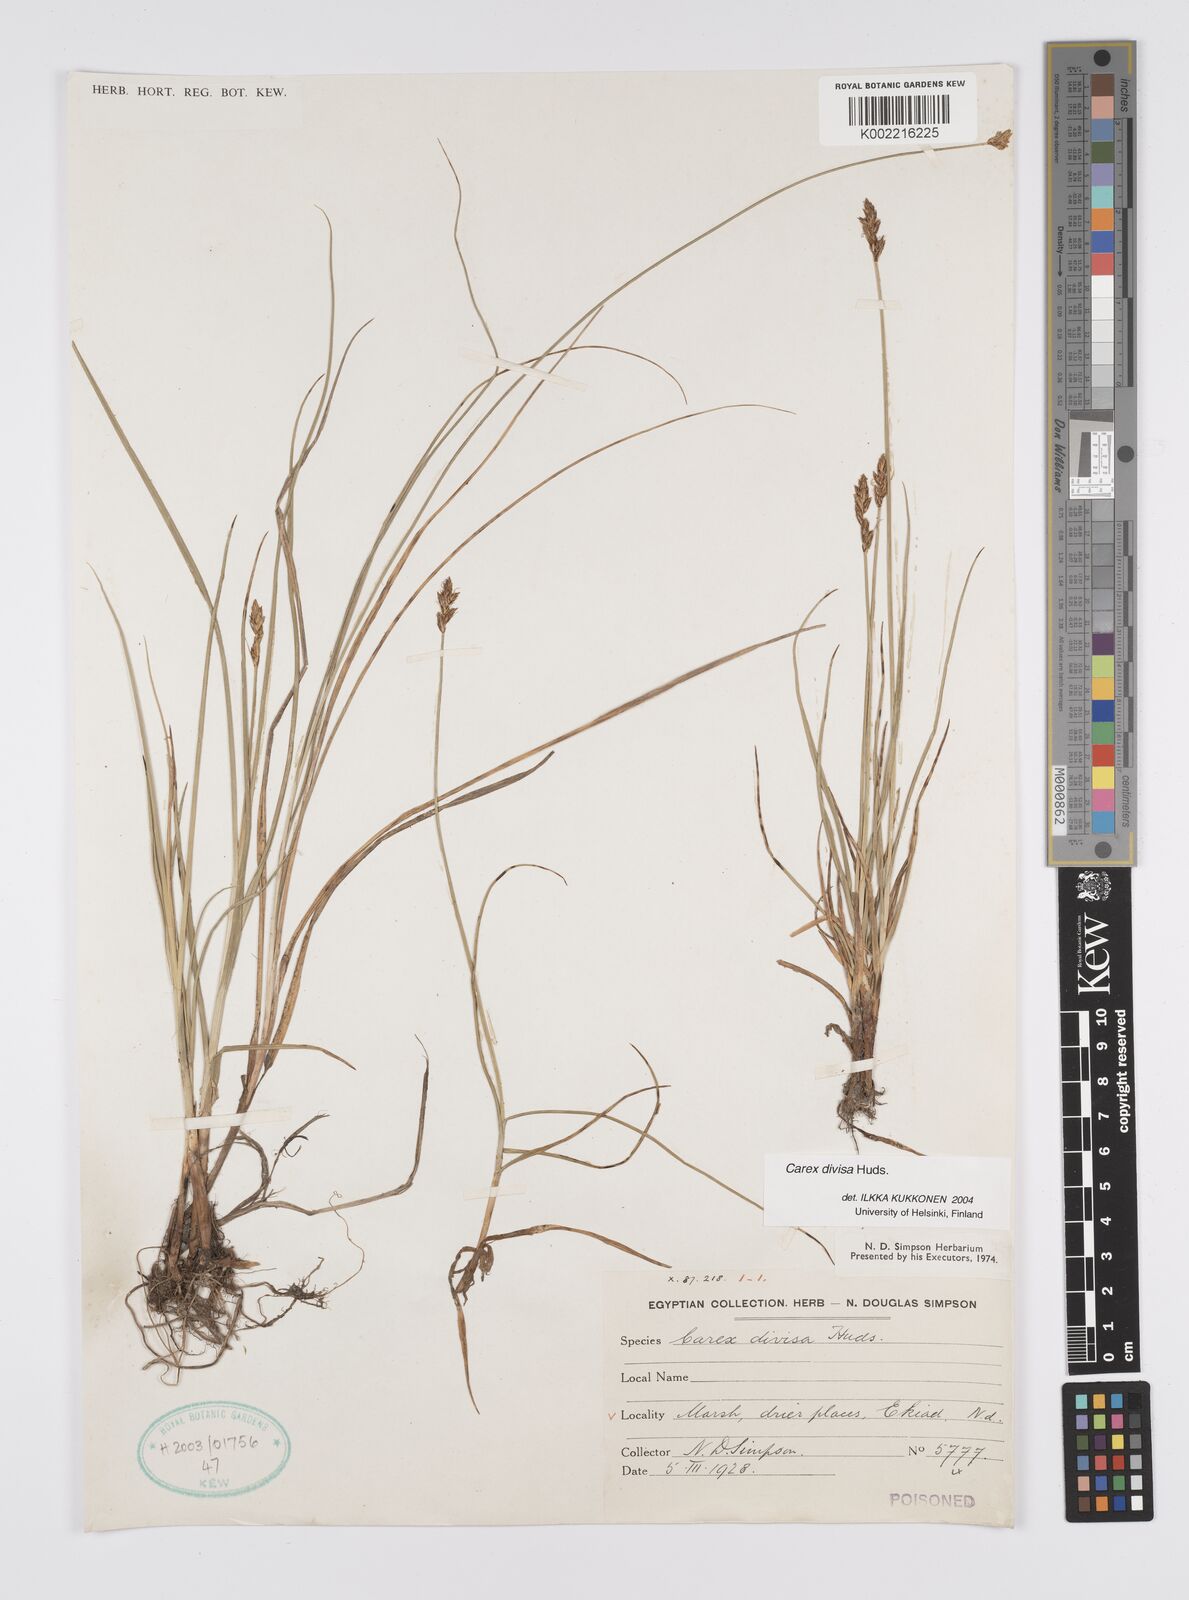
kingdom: Plantae
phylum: Tracheophyta
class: Liliopsida
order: Poales
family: Cyperaceae
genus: Carex
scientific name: Carex divisa
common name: Divided sedge
